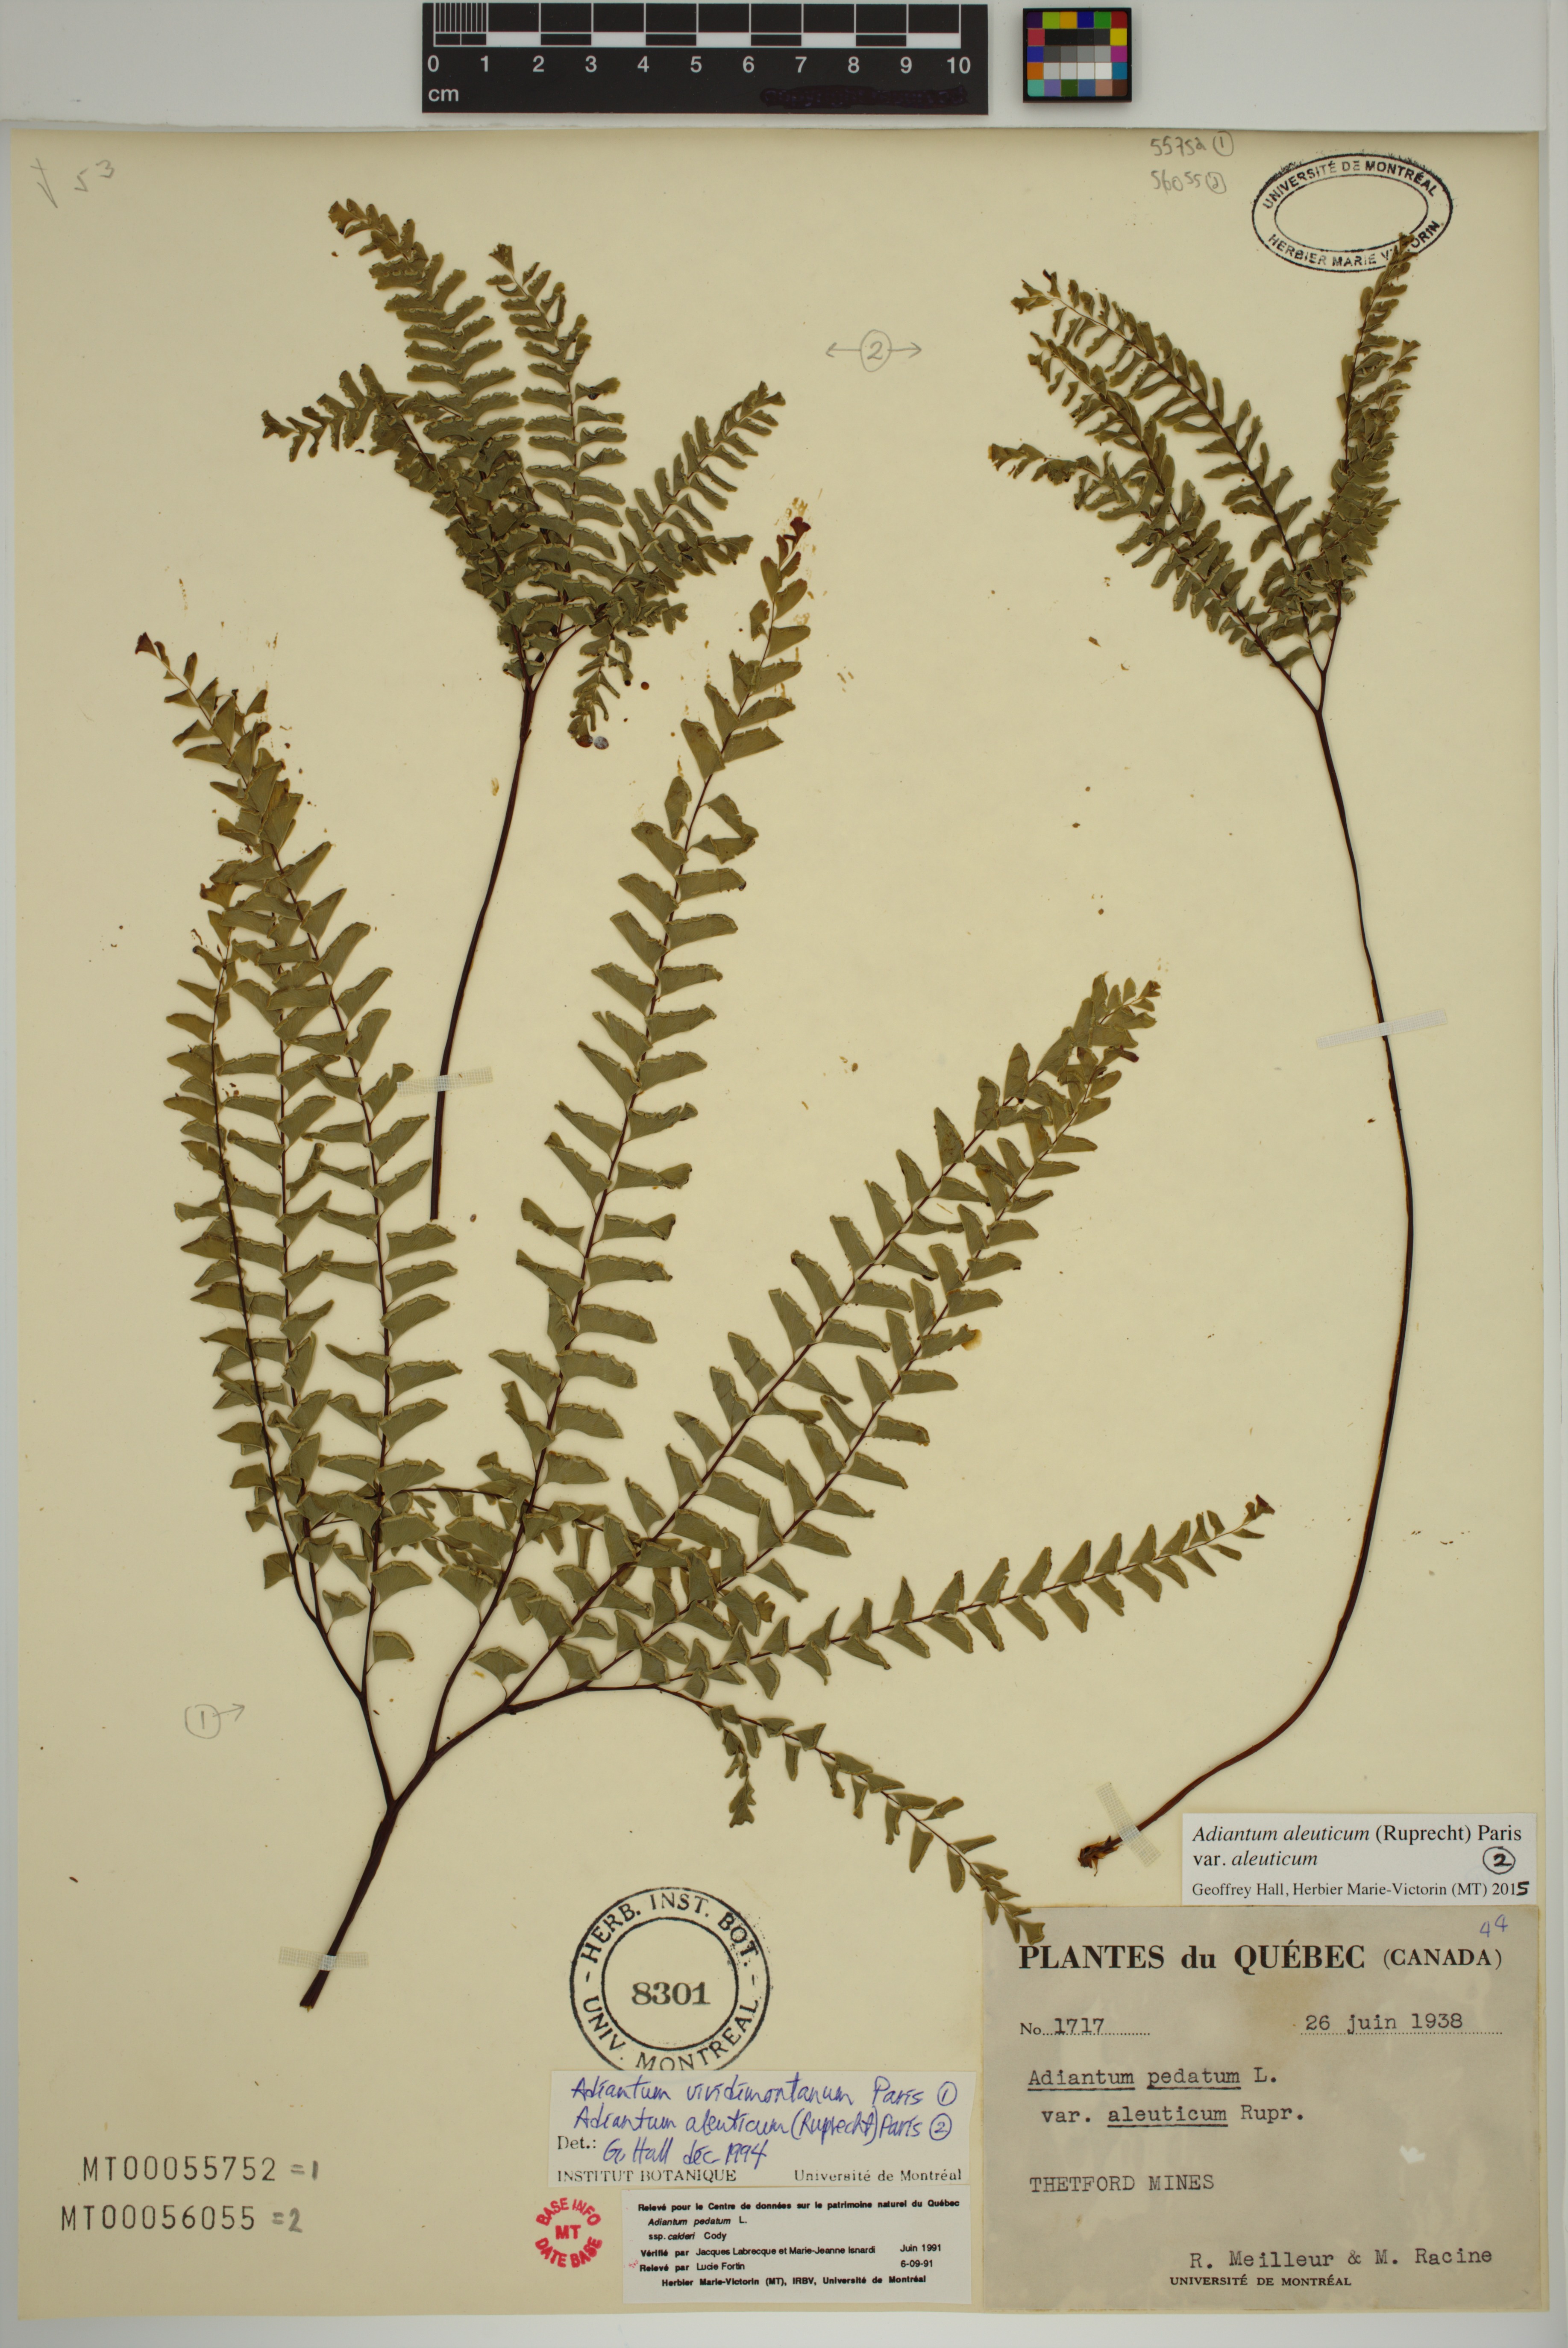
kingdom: Plantae
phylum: Tracheophyta
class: Polypodiopsida
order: Polypodiales
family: Pteridaceae
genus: Adiantum
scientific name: Adiantum aleuticum
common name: Aleutian maidenhair fern
